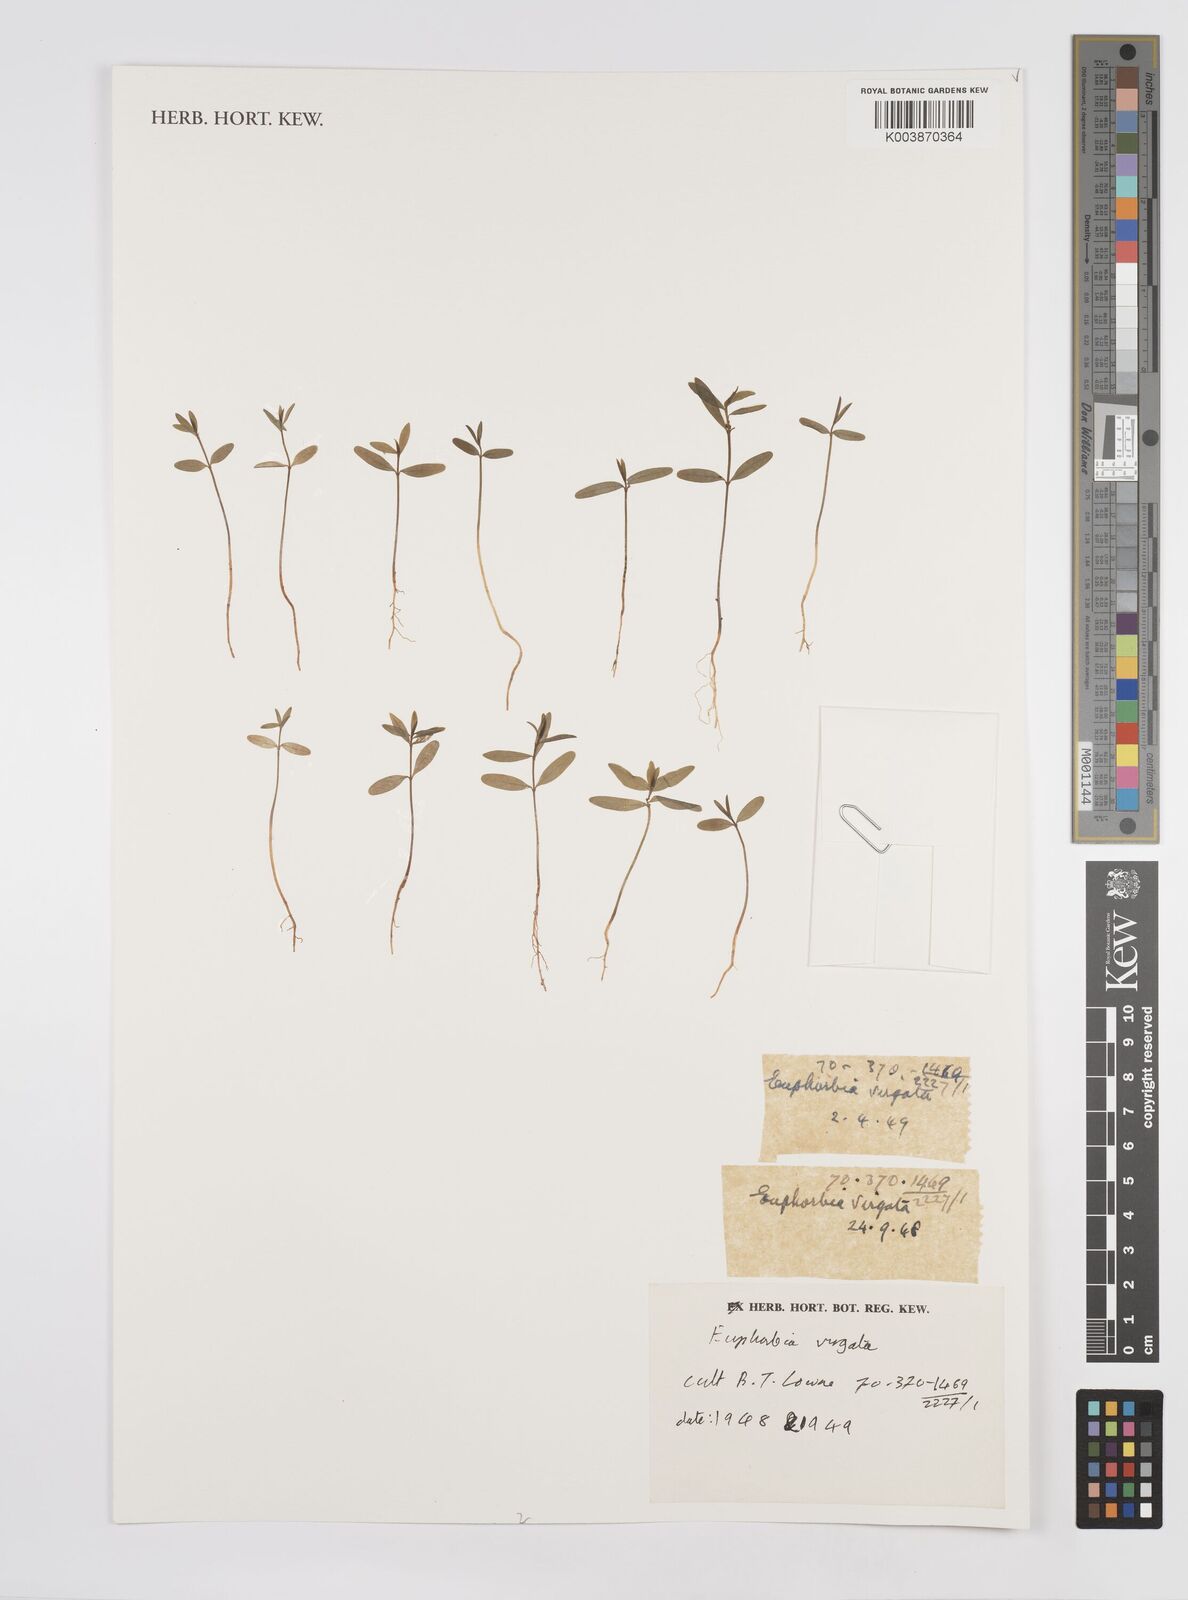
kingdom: Plantae
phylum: Tracheophyta
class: Magnoliopsida
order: Malpighiales
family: Euphorbiaceae
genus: Euphorbia
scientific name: Euphorbia
